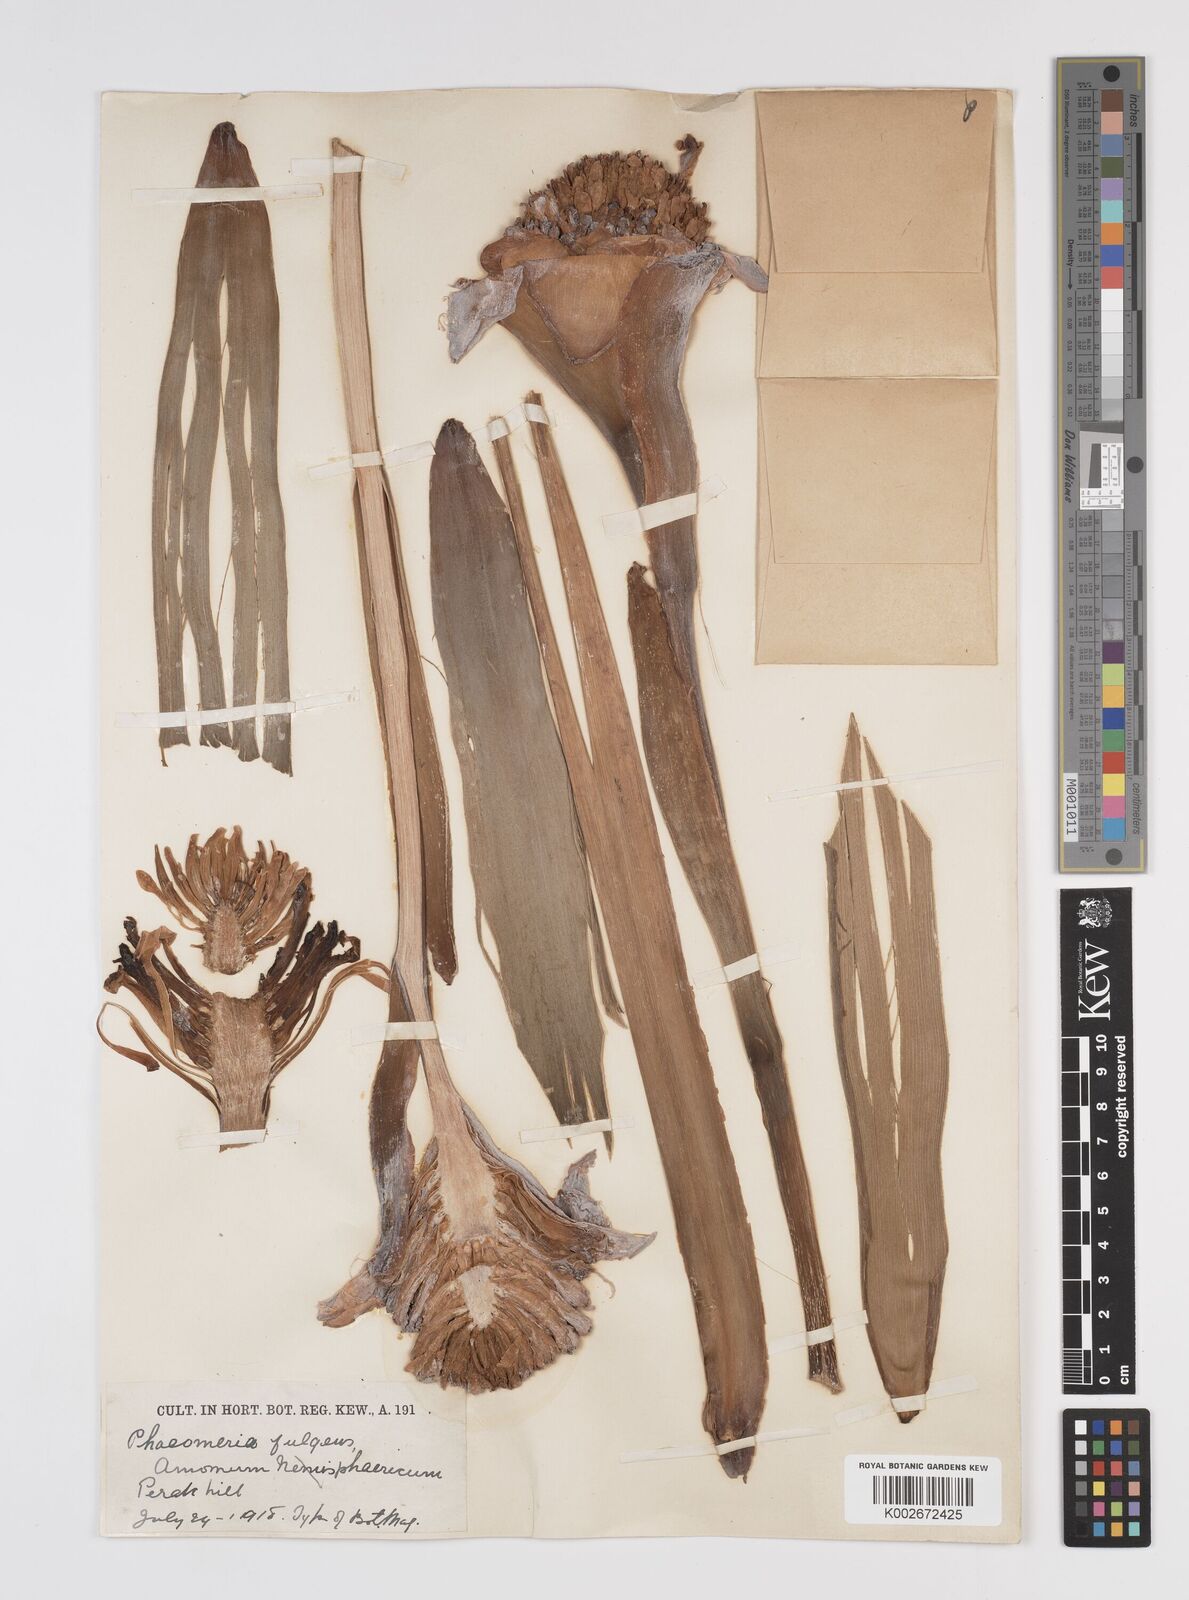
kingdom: Plantae
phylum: Tracheophyta
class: Liliopsida
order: Zingiberales
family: Zingiberaceae
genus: Etlingera
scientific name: Etlingera elatior
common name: Philippine waxflower
